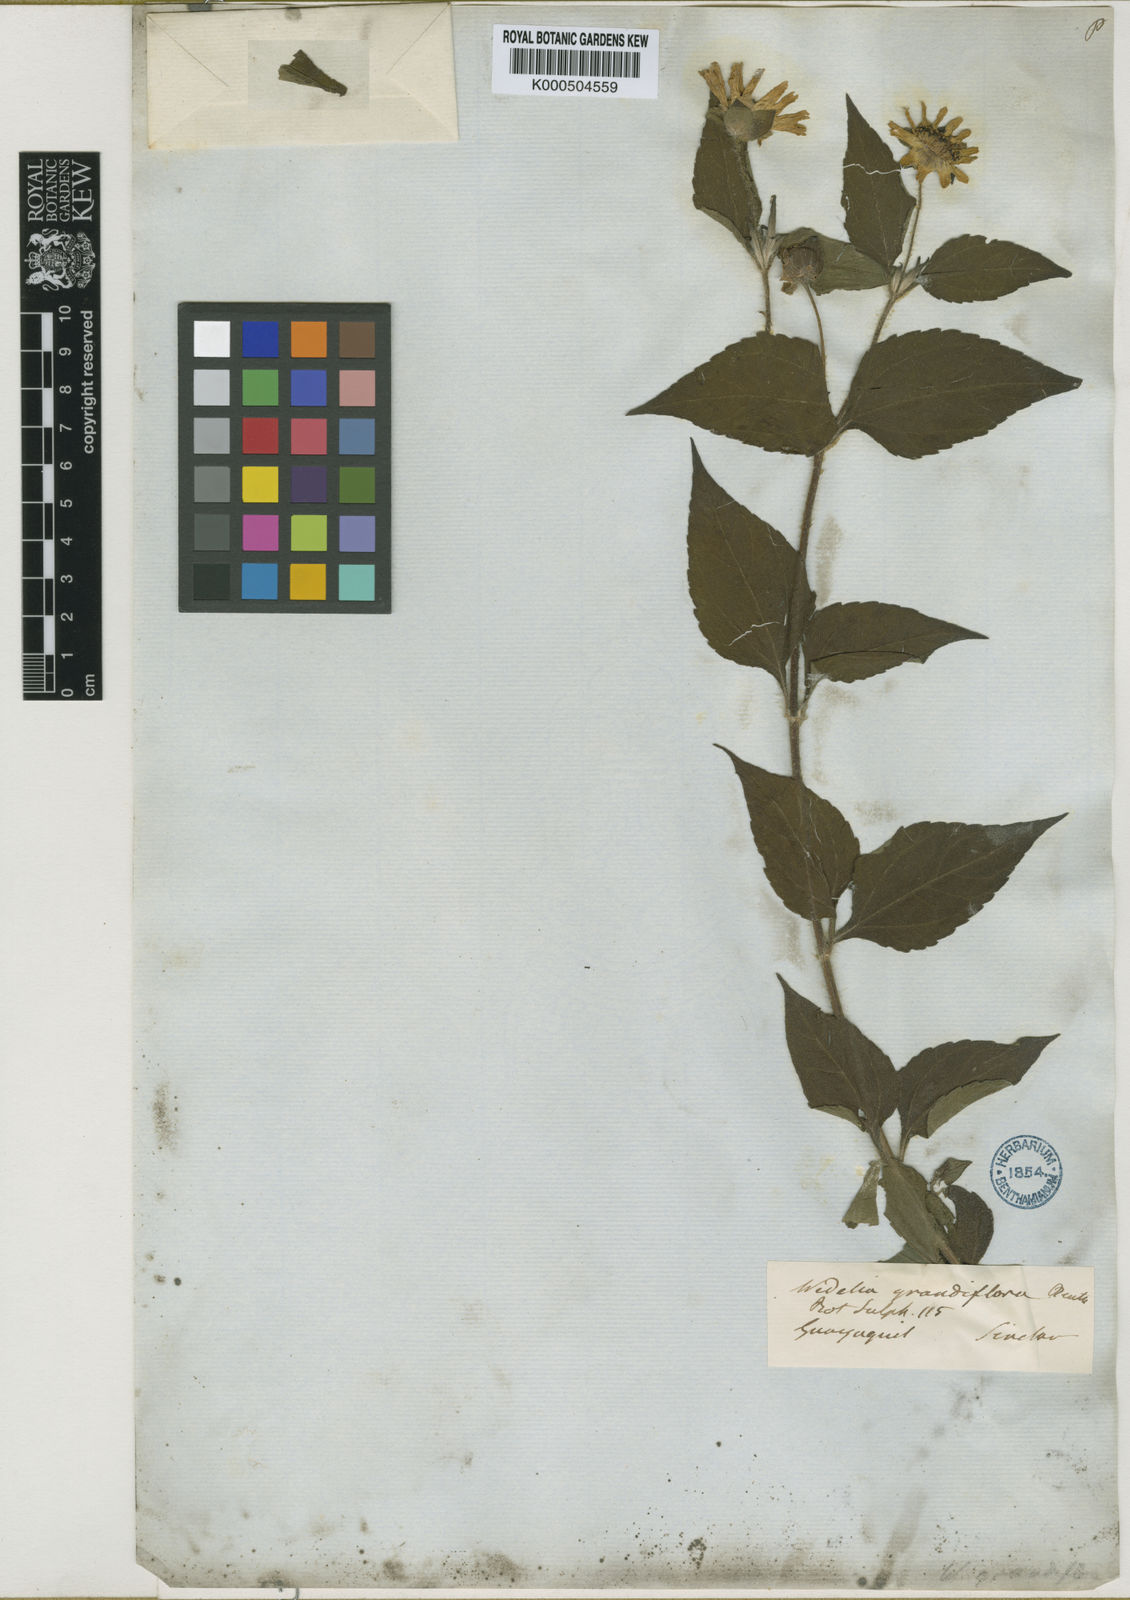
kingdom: Plantae
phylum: Tracheophyta
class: Magnoliopsida
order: Asterales
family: Asteraceae
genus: Wedelia
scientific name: Wedelia grandiflora
